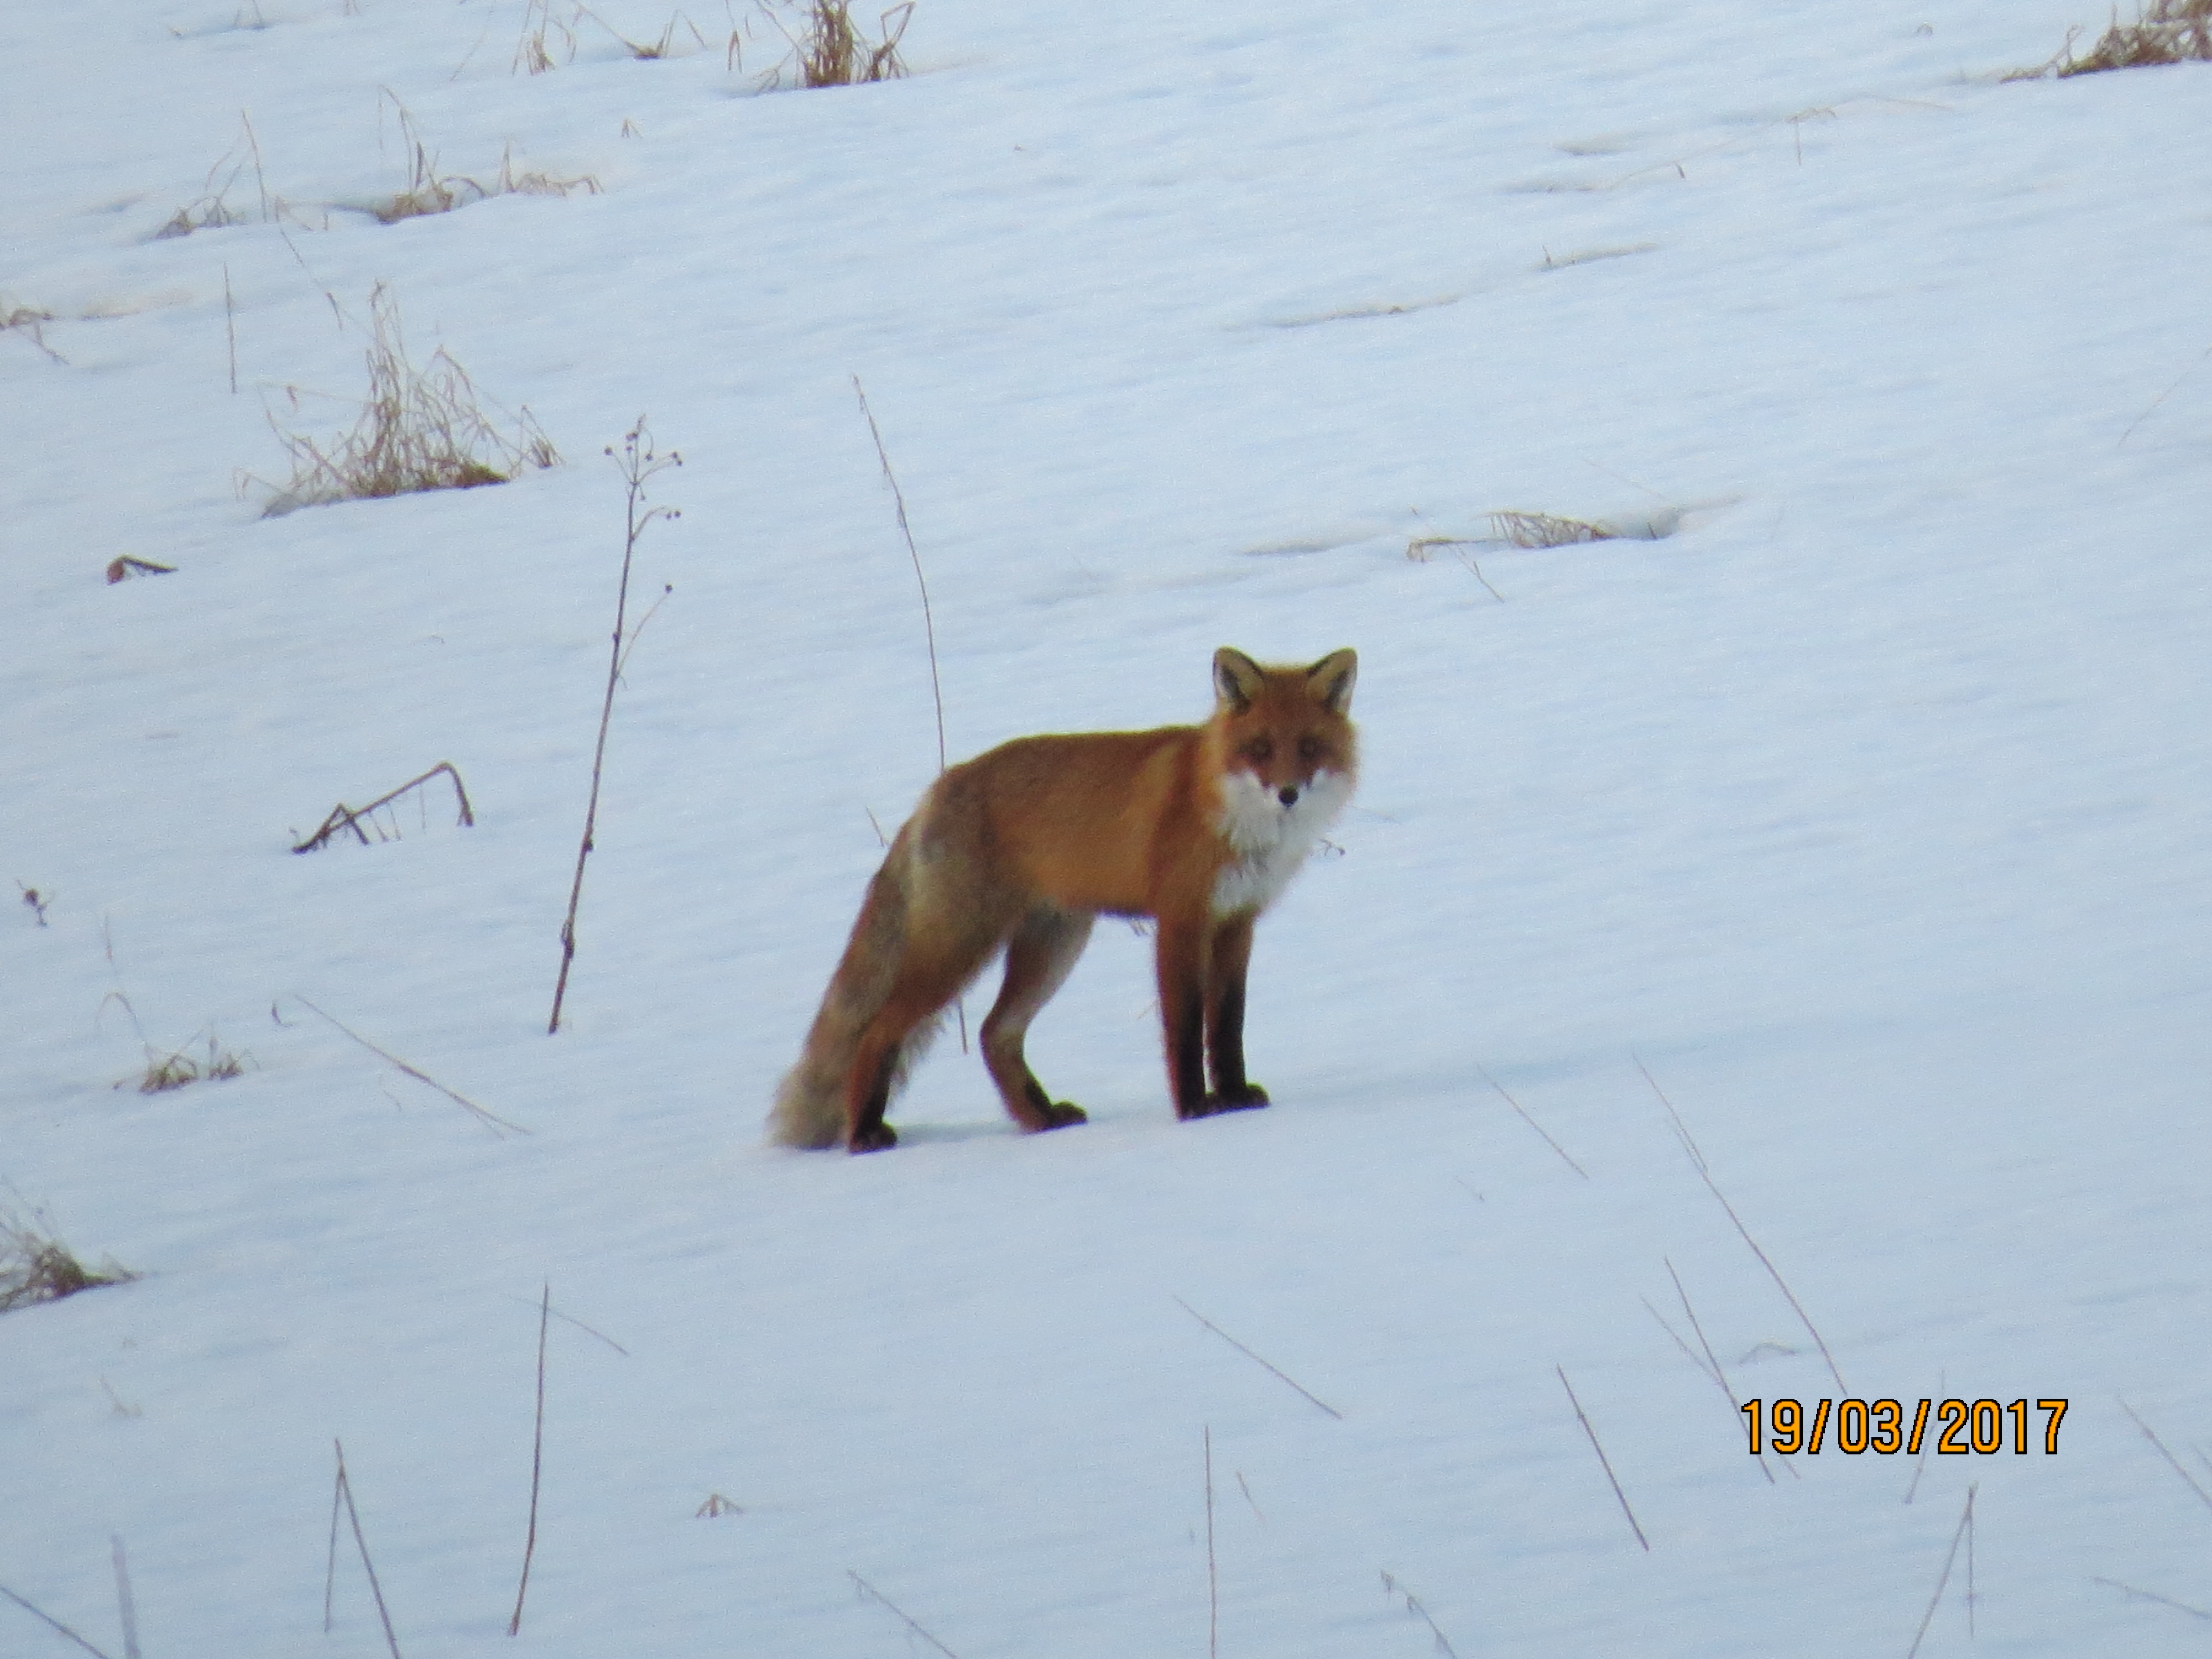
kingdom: Animalia
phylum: Chordata
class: Mammalia
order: Carnivora
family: Canidae
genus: Vulpes
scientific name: Vulpes vulpes
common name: Red fox
